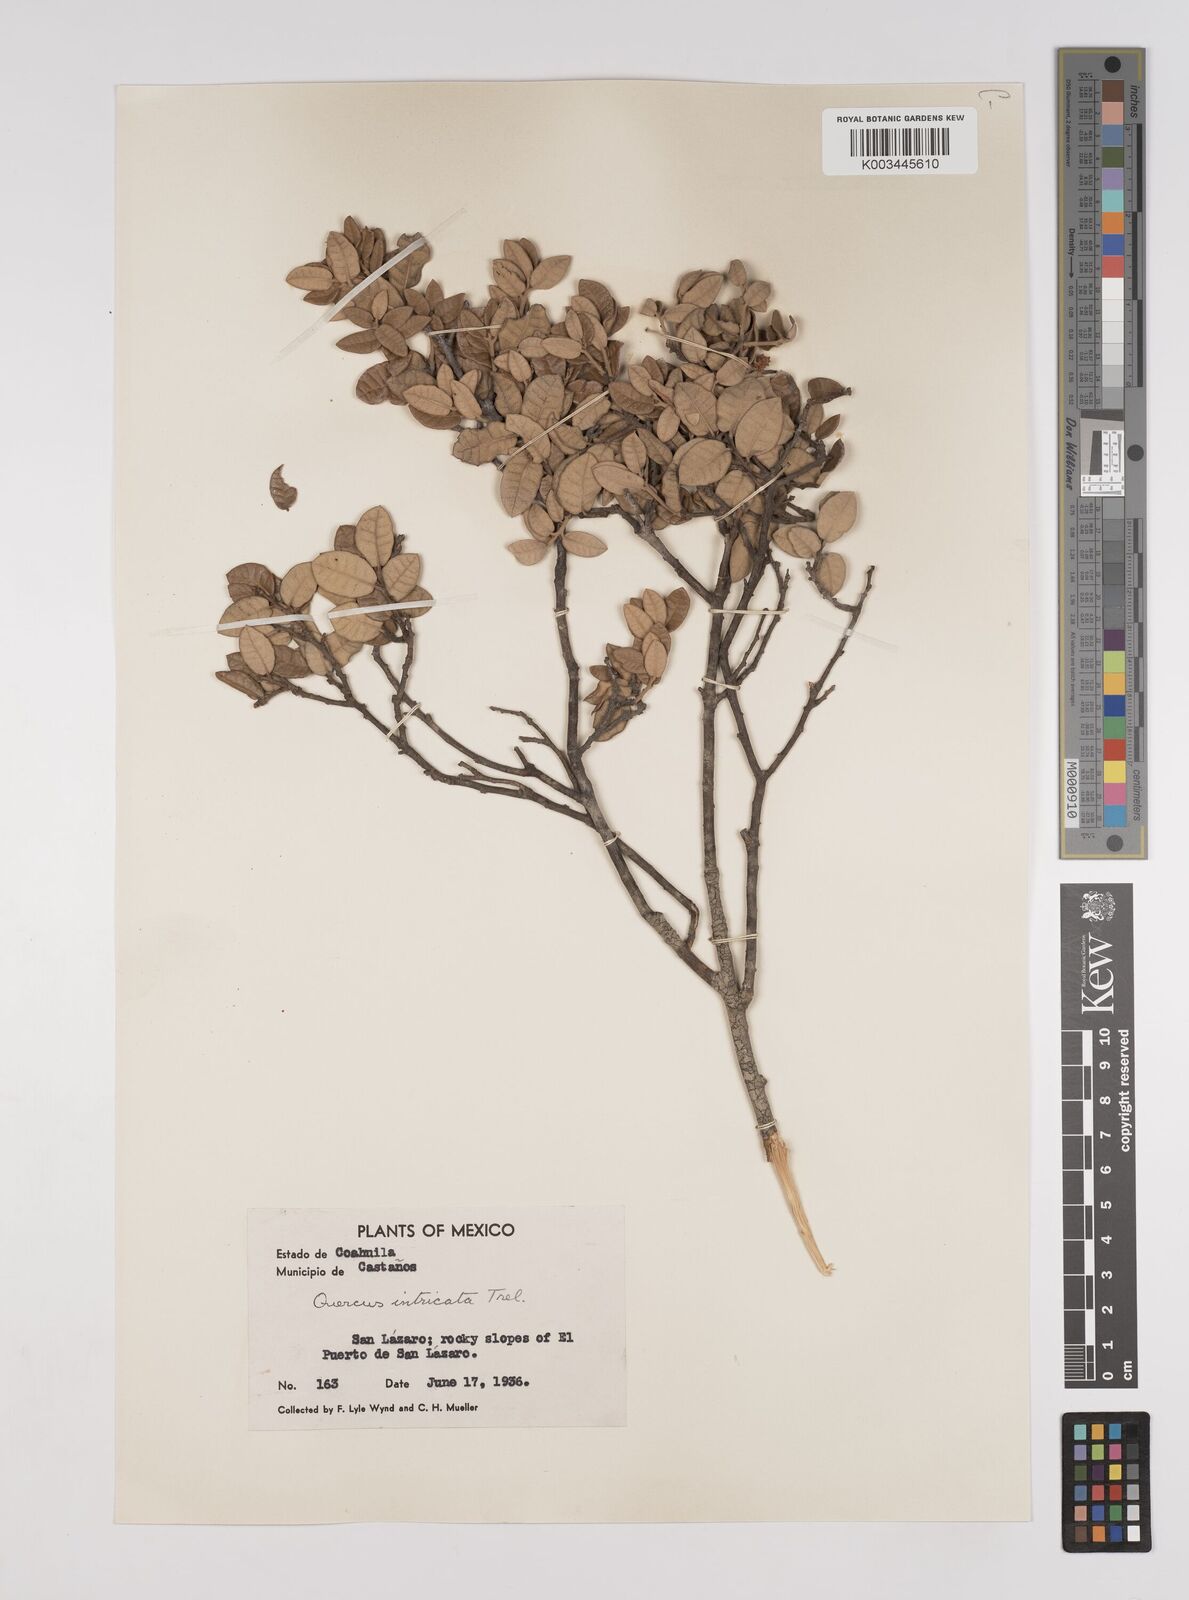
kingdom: Plantae
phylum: Tracheophyta
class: Magnoliopsida
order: Fagales
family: Fagaceae
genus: Quercus
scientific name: Quercus intricata
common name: Dwarf oak
